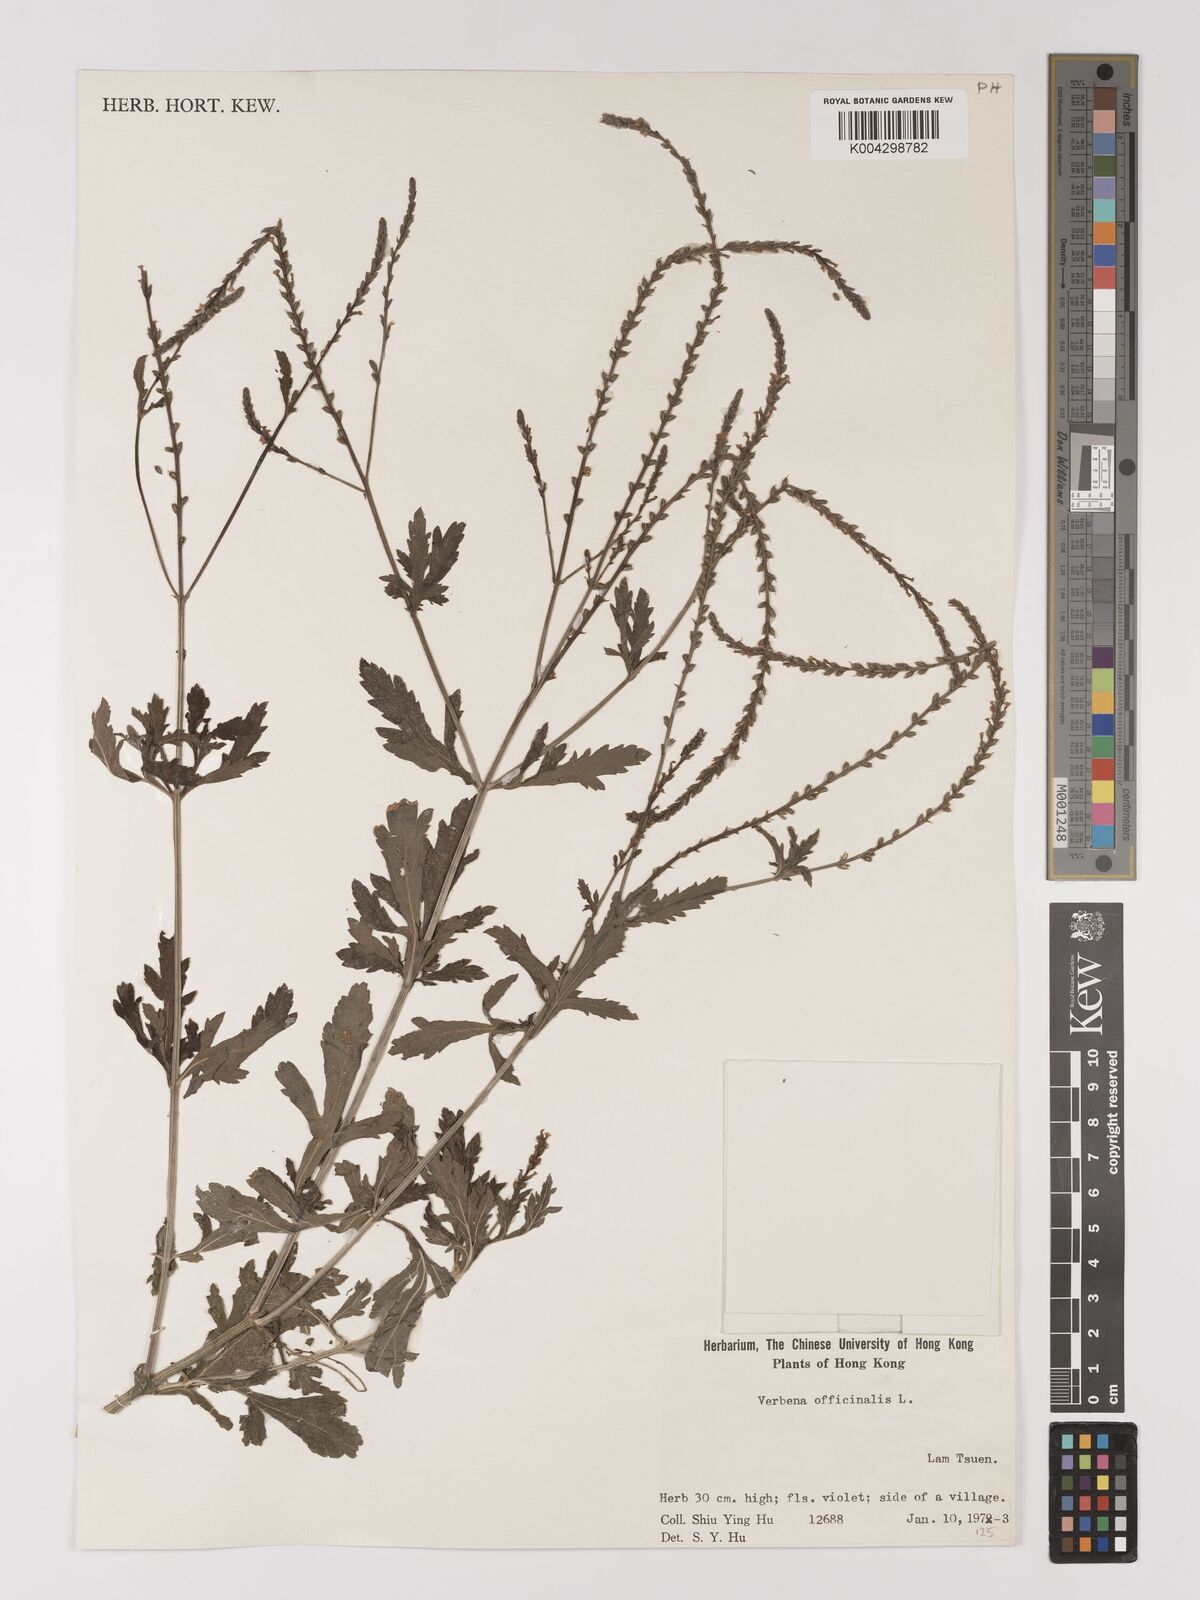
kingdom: Plantae
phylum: Tracheophyta
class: Magnoliopsida
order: Lamiales
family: Verbenaceae
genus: Verbena
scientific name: Verbena officinalis
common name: Vervain
